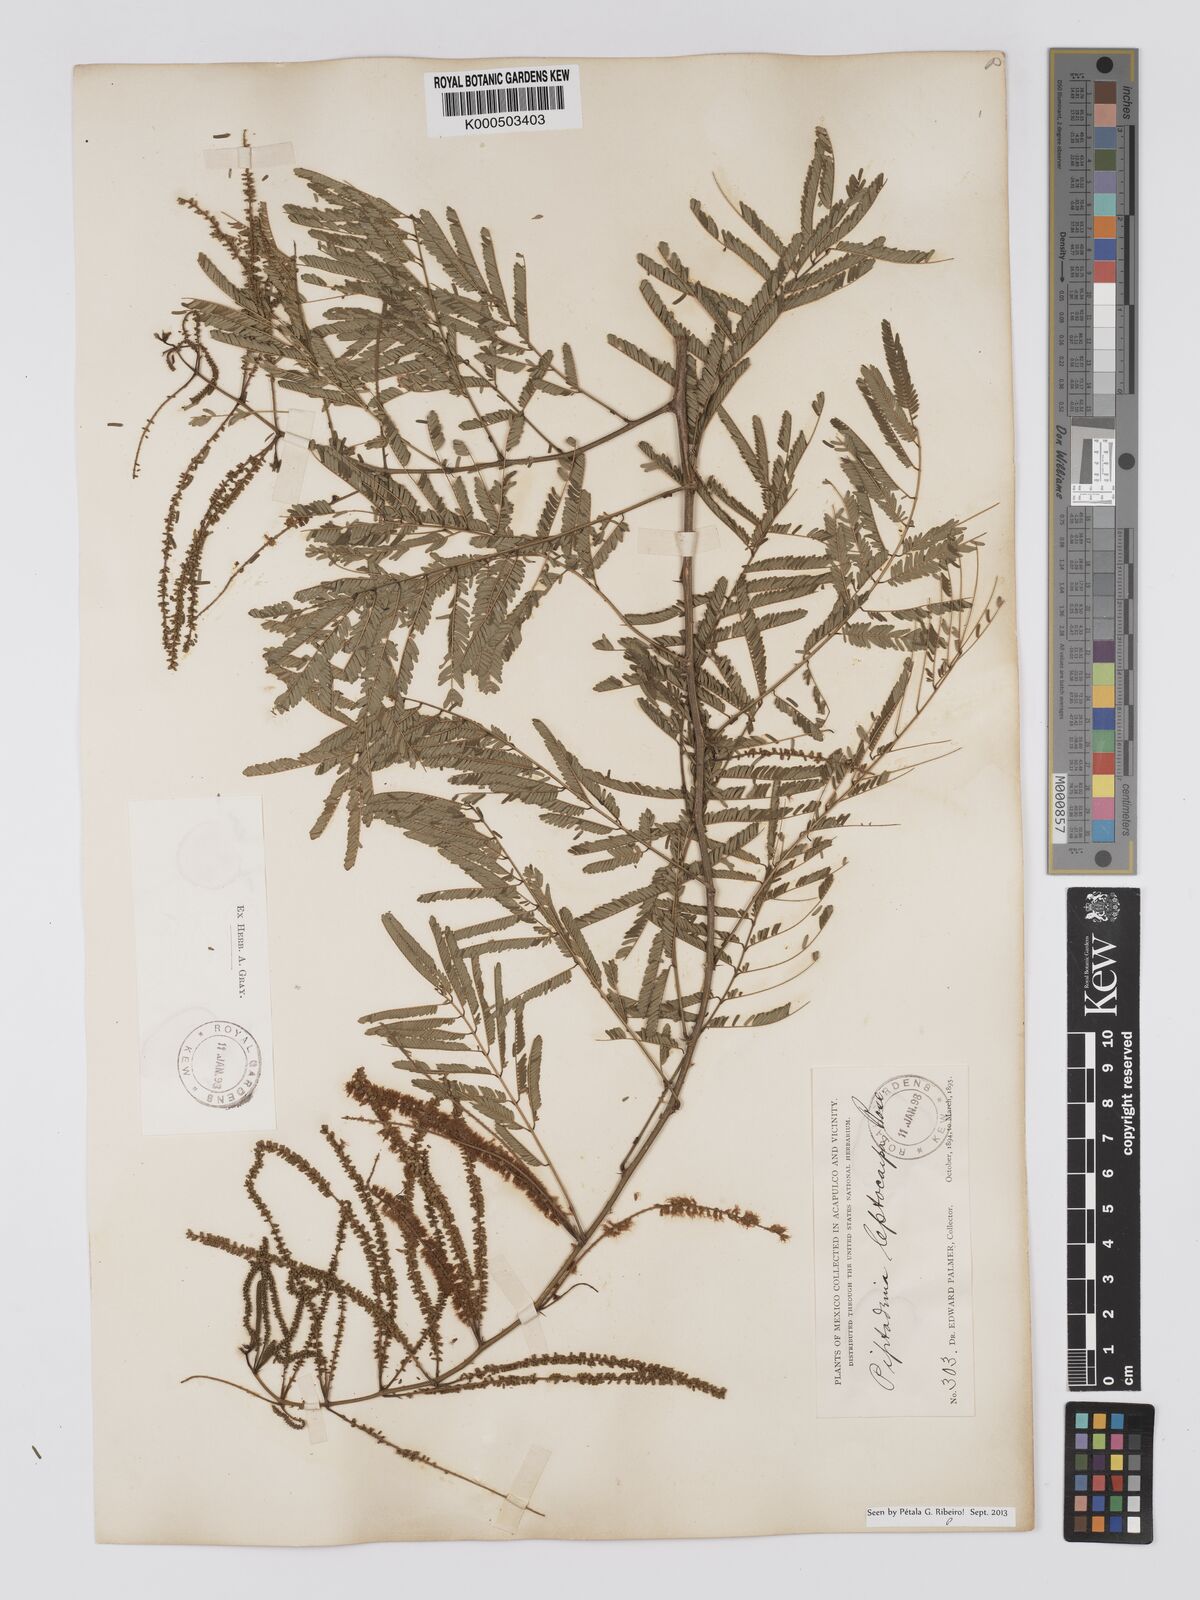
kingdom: Plantae
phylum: Tracheophyta
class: Magnoliopsida
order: Fabales
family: Fabaceae
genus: Piptadenia
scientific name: Piptadenia retusa
